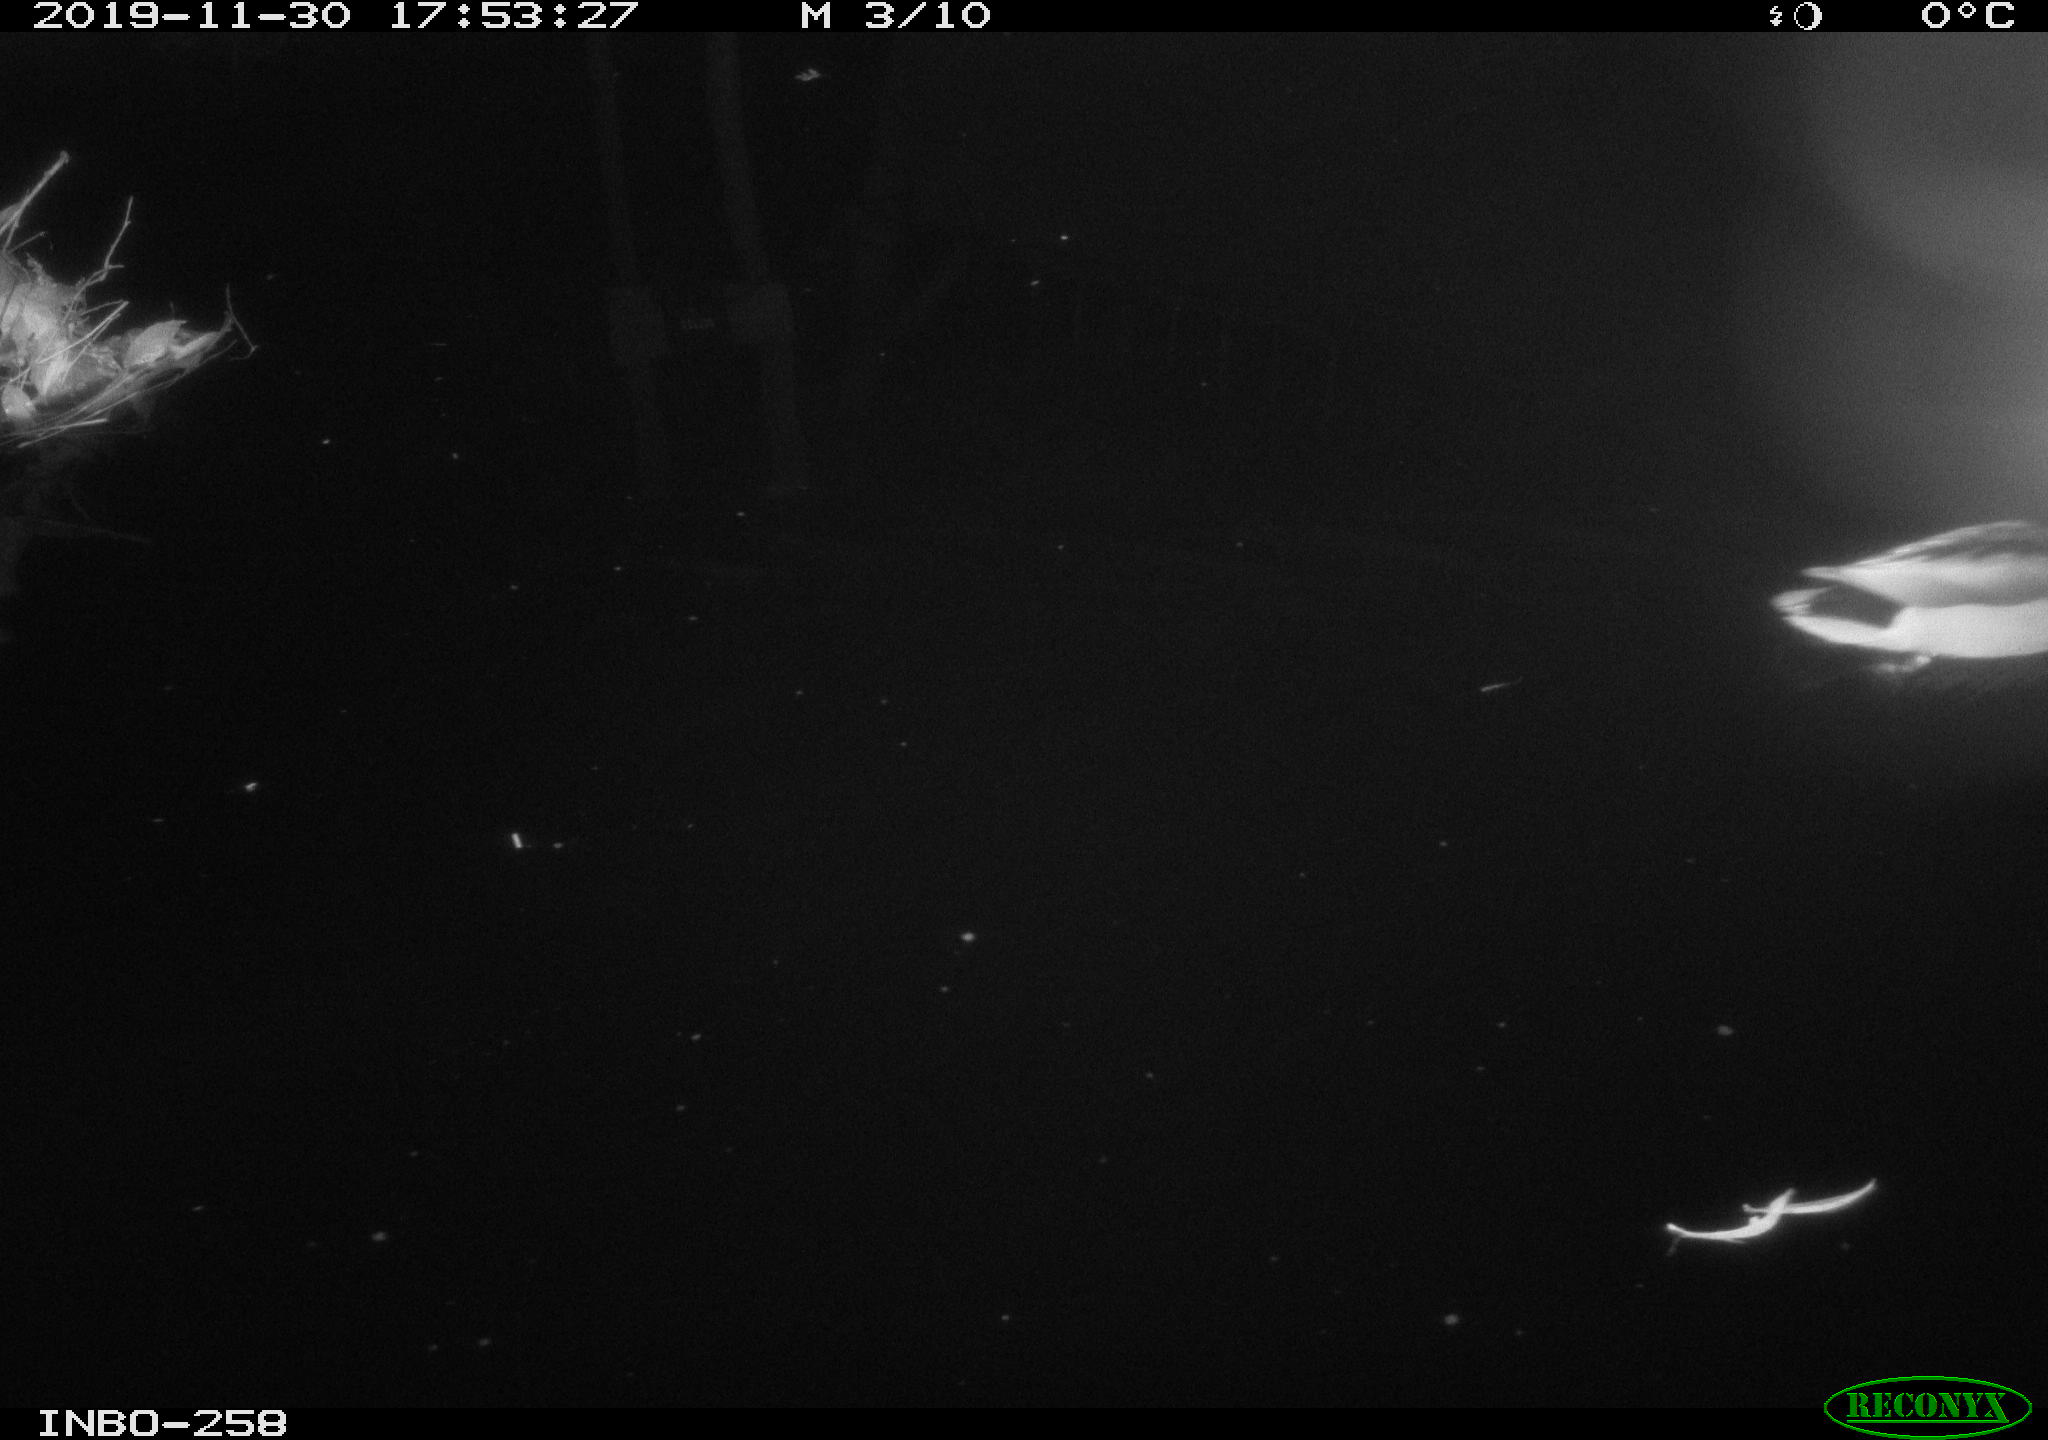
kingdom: Animalia
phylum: Chordata
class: Aves
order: Anseriformes
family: Anatidae
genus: Anas
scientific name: Anas platyrhynchos
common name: Mallard
